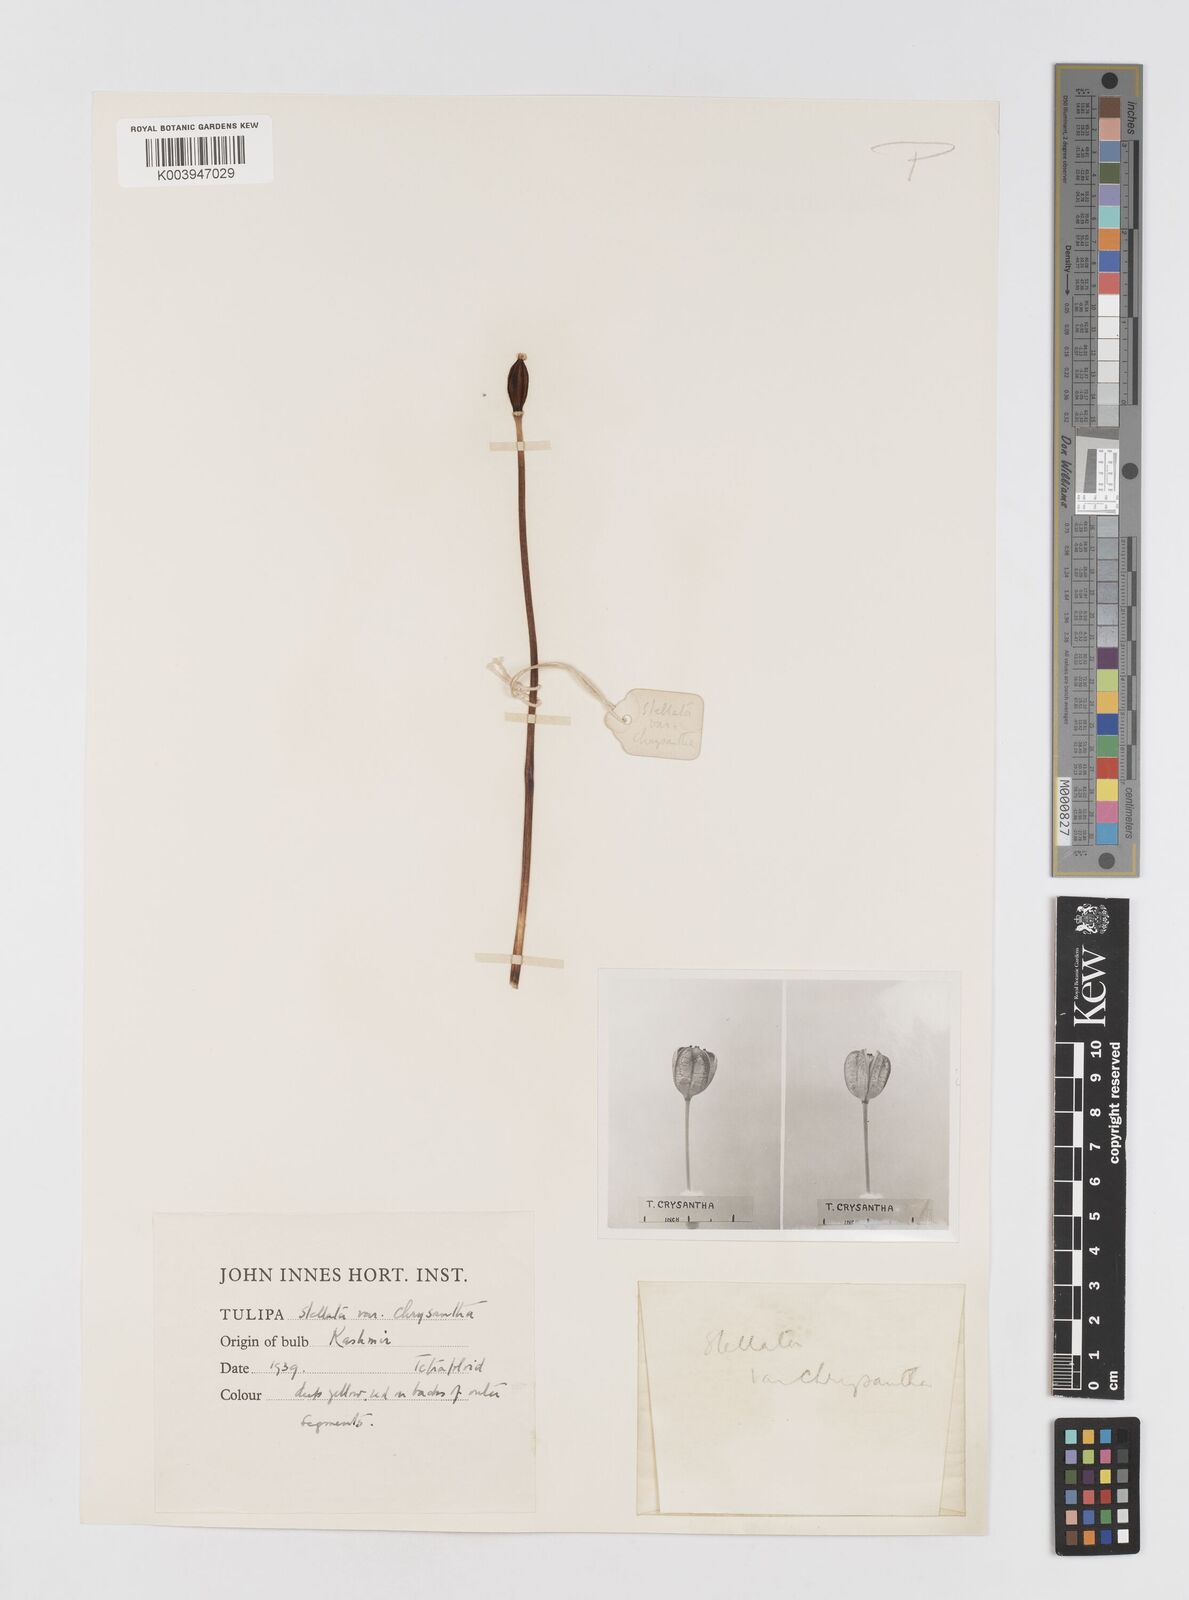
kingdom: Plantae
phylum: Tracheophyta
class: Liliopsida
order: Liliales
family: Liliaceae
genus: Tulipa
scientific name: Tulipa clusiana
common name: Lady tulip
